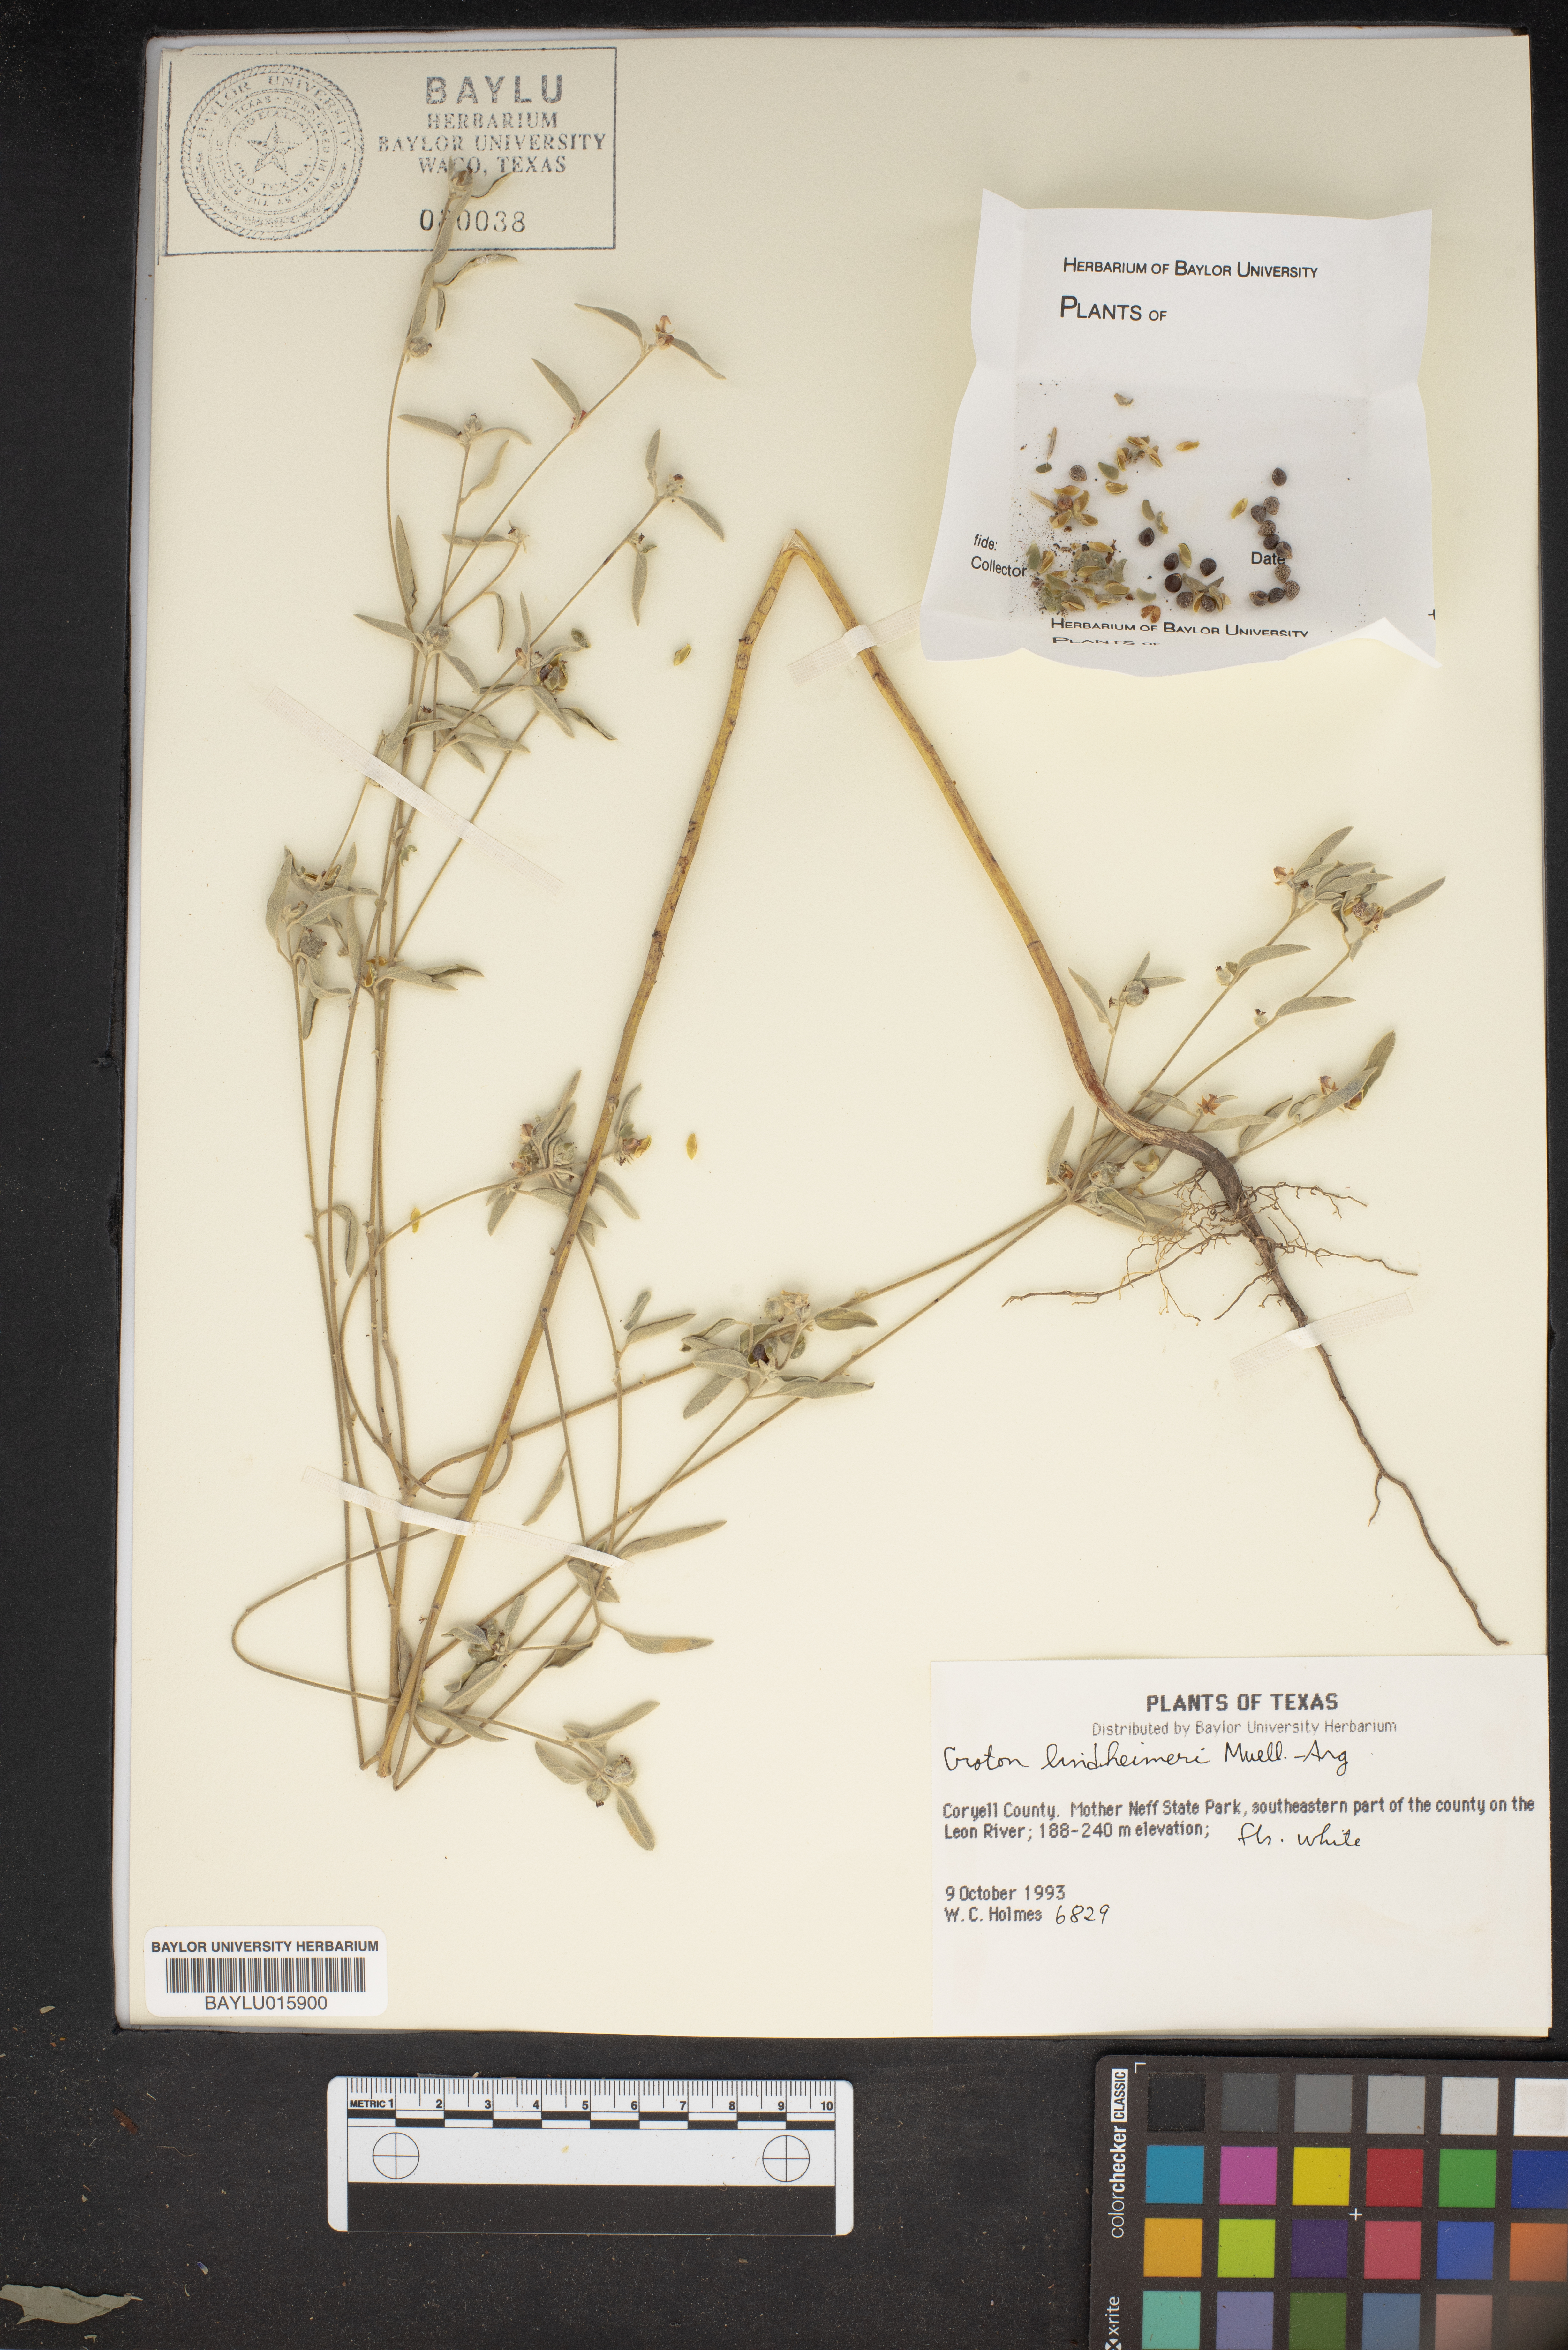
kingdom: Plantae
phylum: Tracheophyta
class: Magnoliopsida
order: Malpighiales
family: Euphorbiaceae
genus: Croton
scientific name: Croton lindheimeri
